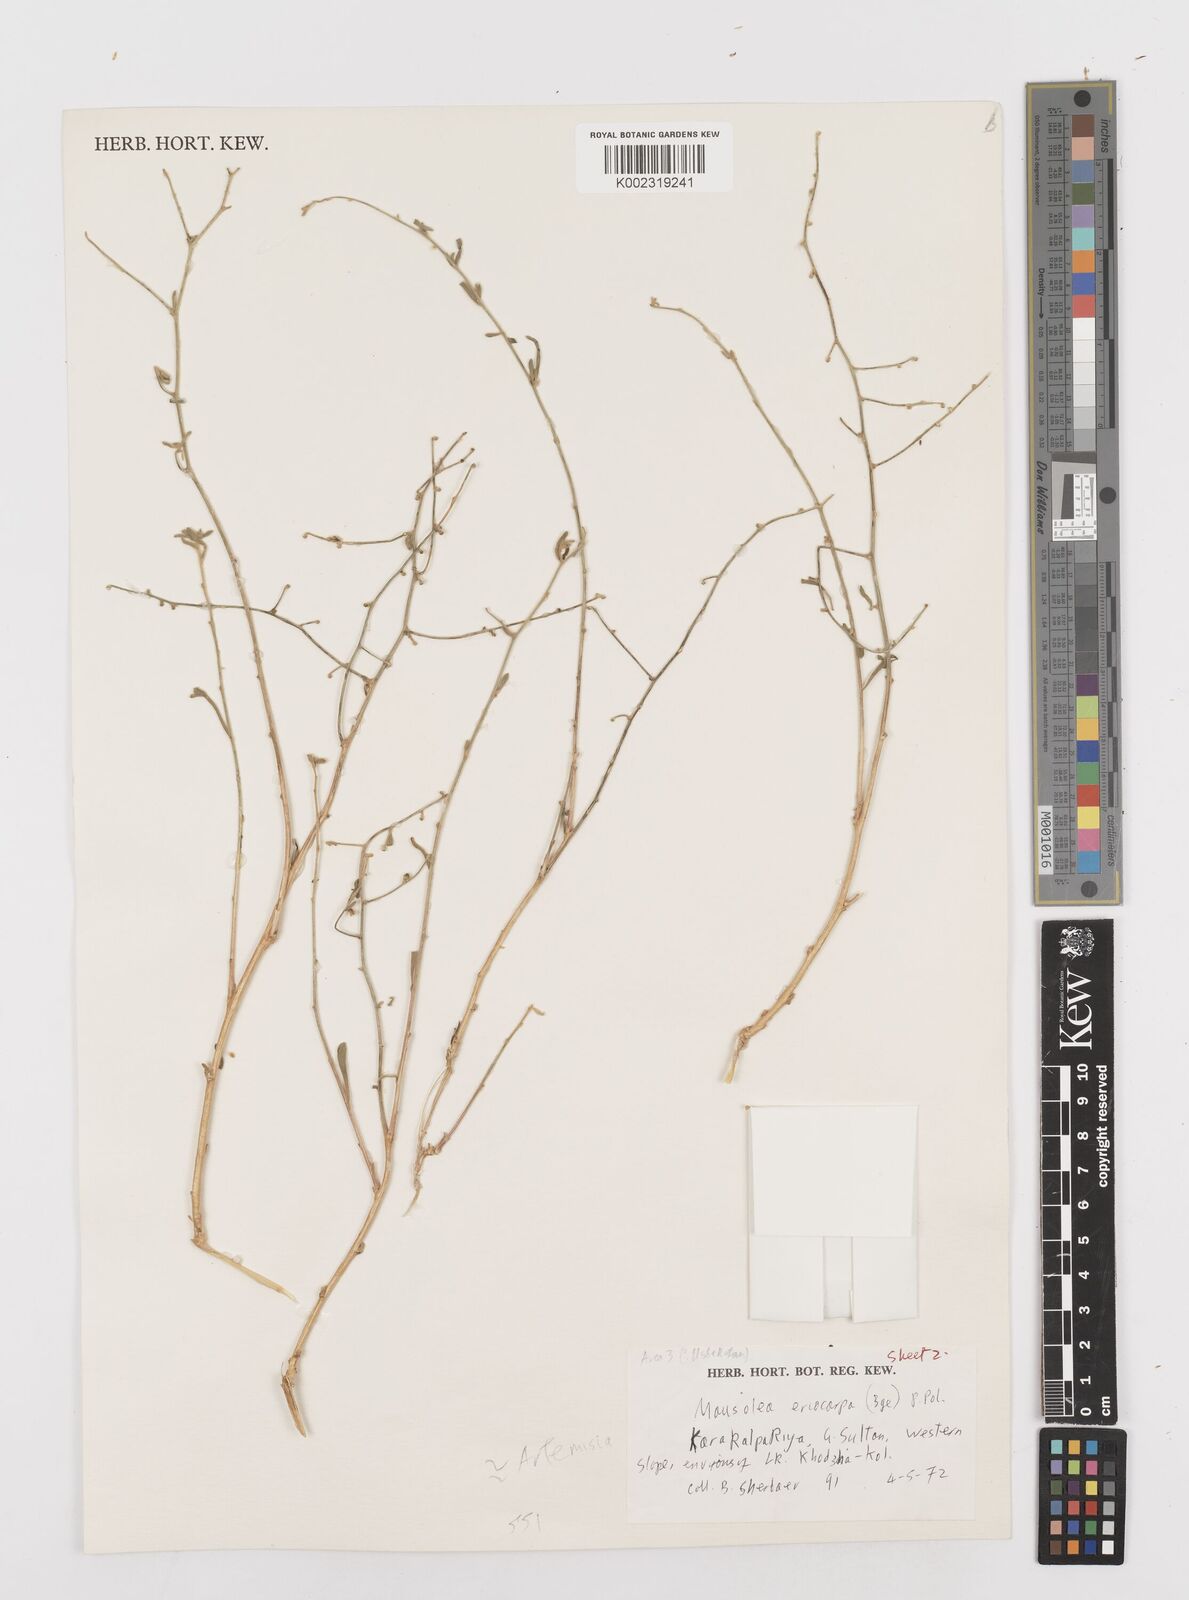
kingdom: Plantae
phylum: Tracheophyta
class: Magnoliopsida
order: Asterales
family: Asteraceae
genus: Mausolea
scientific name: Mausolea
